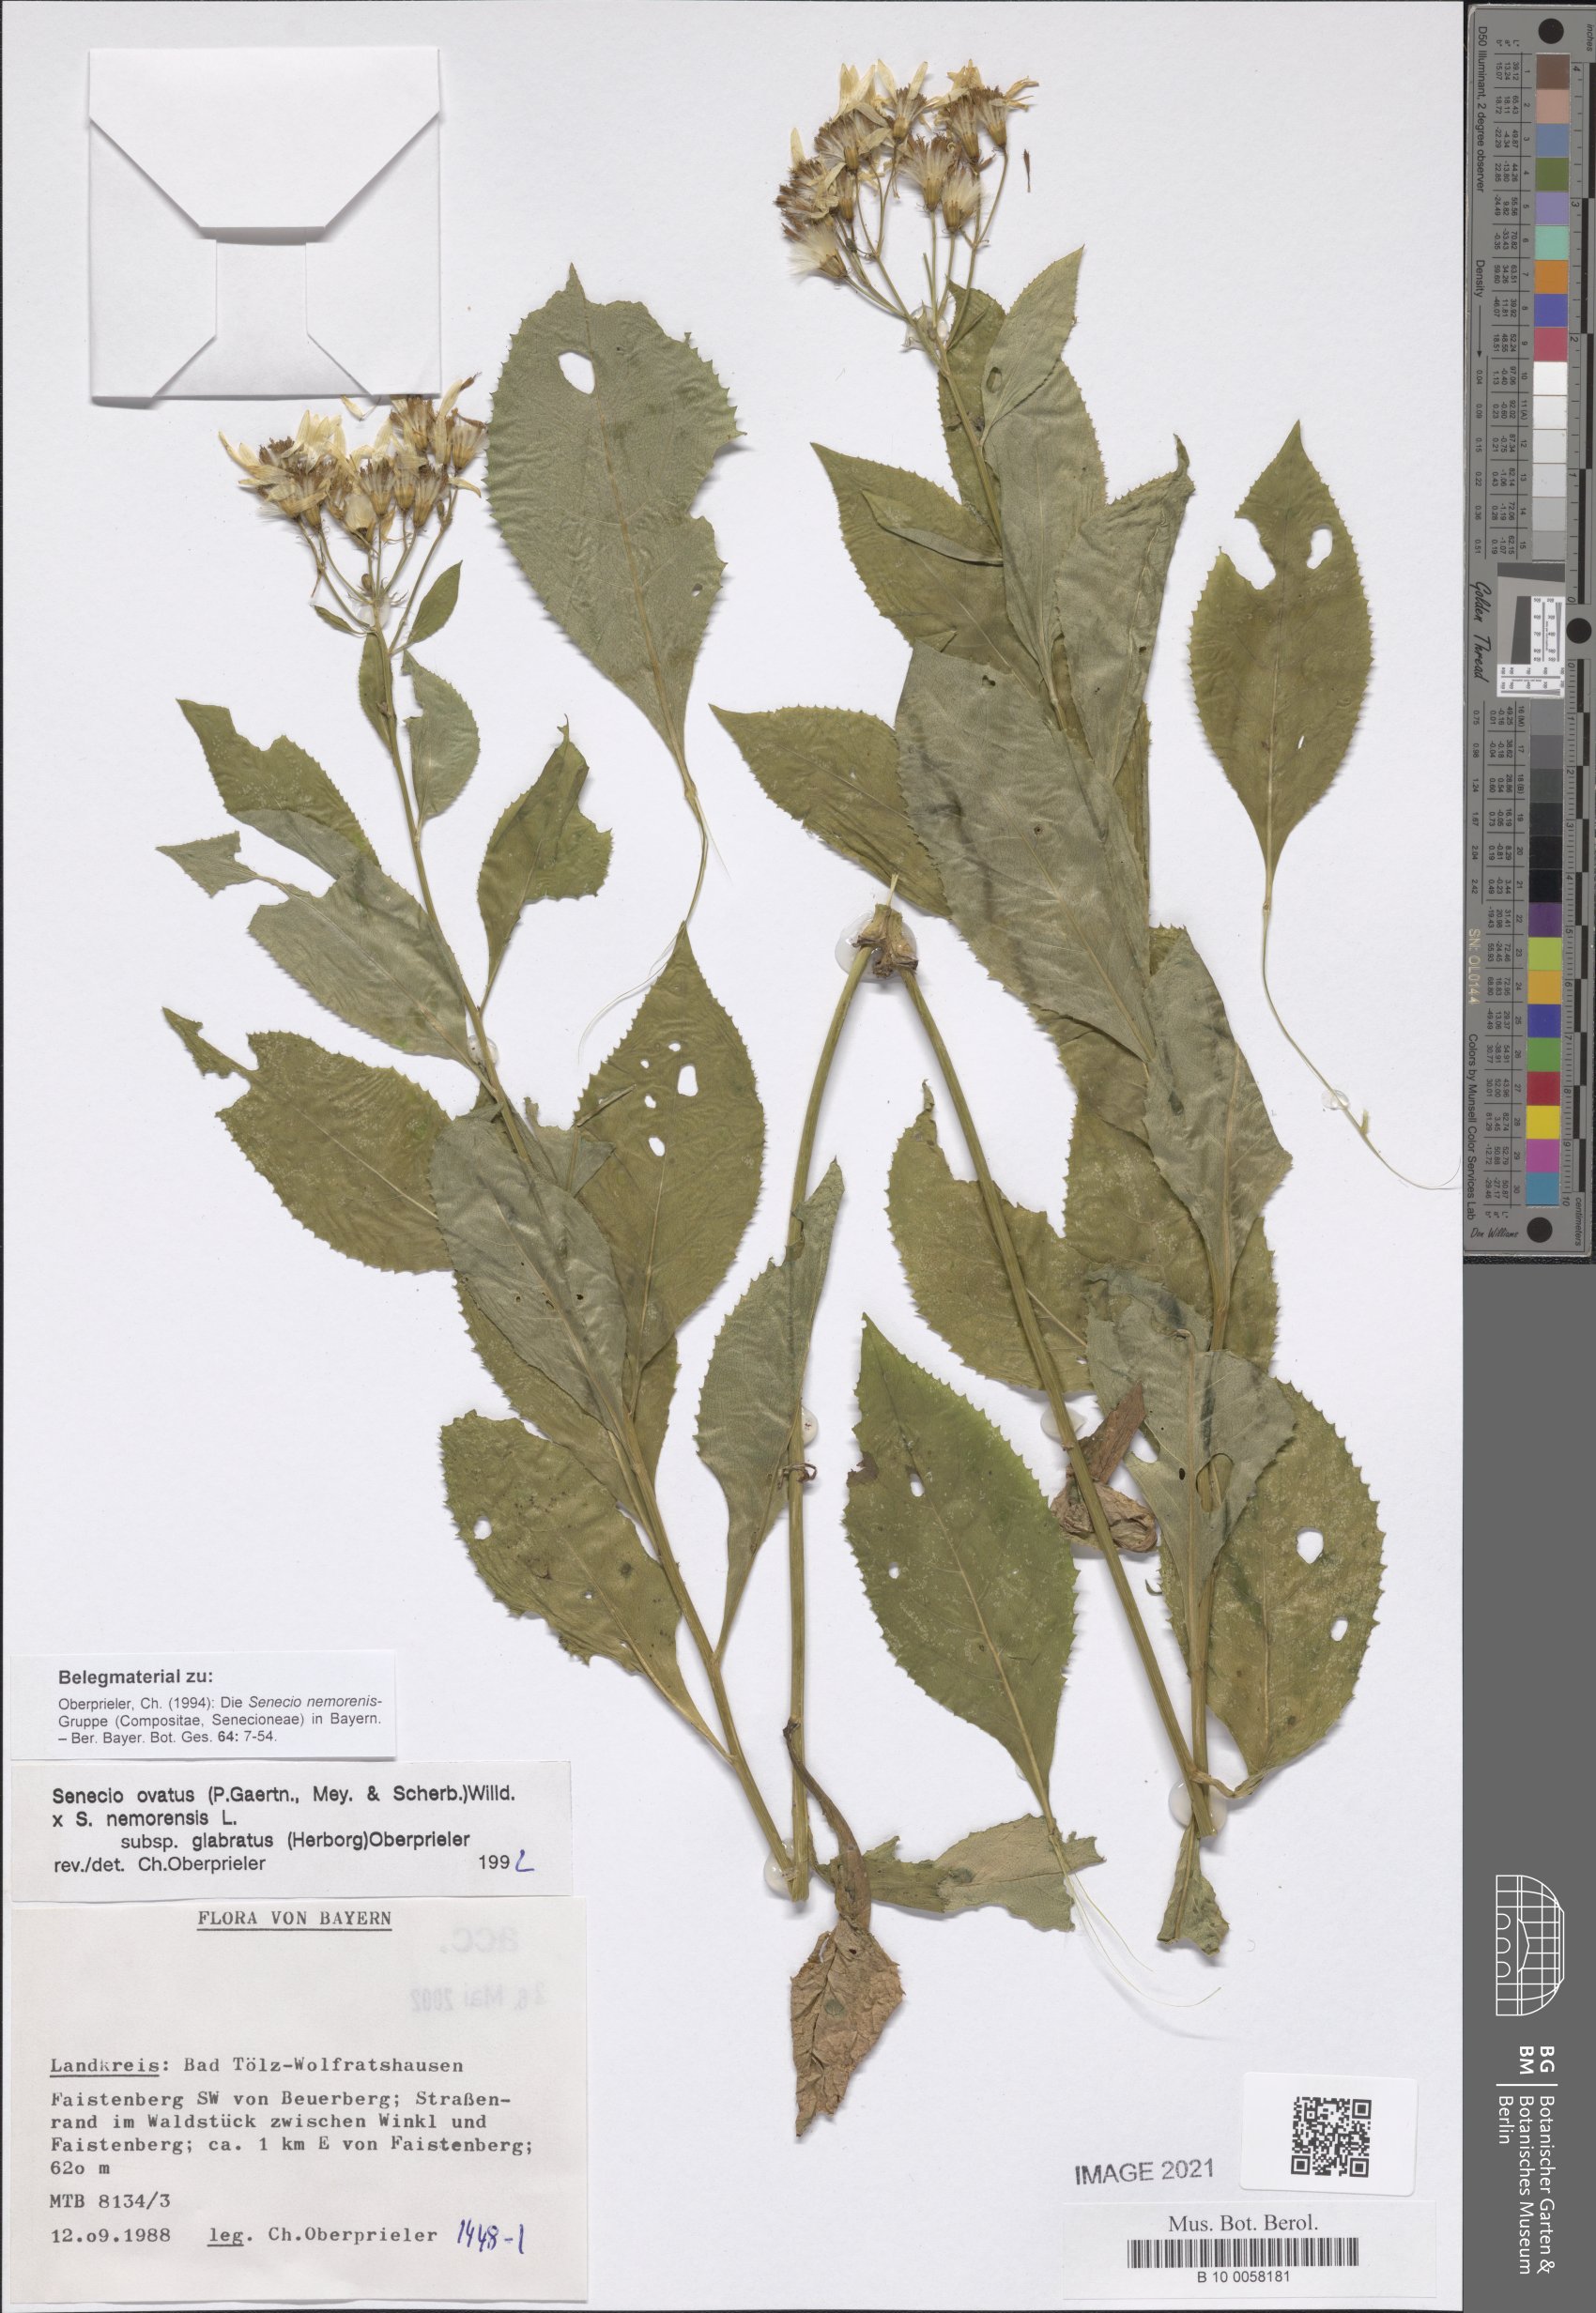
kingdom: Plantae
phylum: Tracheophyta
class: Magnoliopsida
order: Asterales
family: Asteraceae
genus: Senecio
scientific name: Senecio ovatus
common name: Wood ragwort
